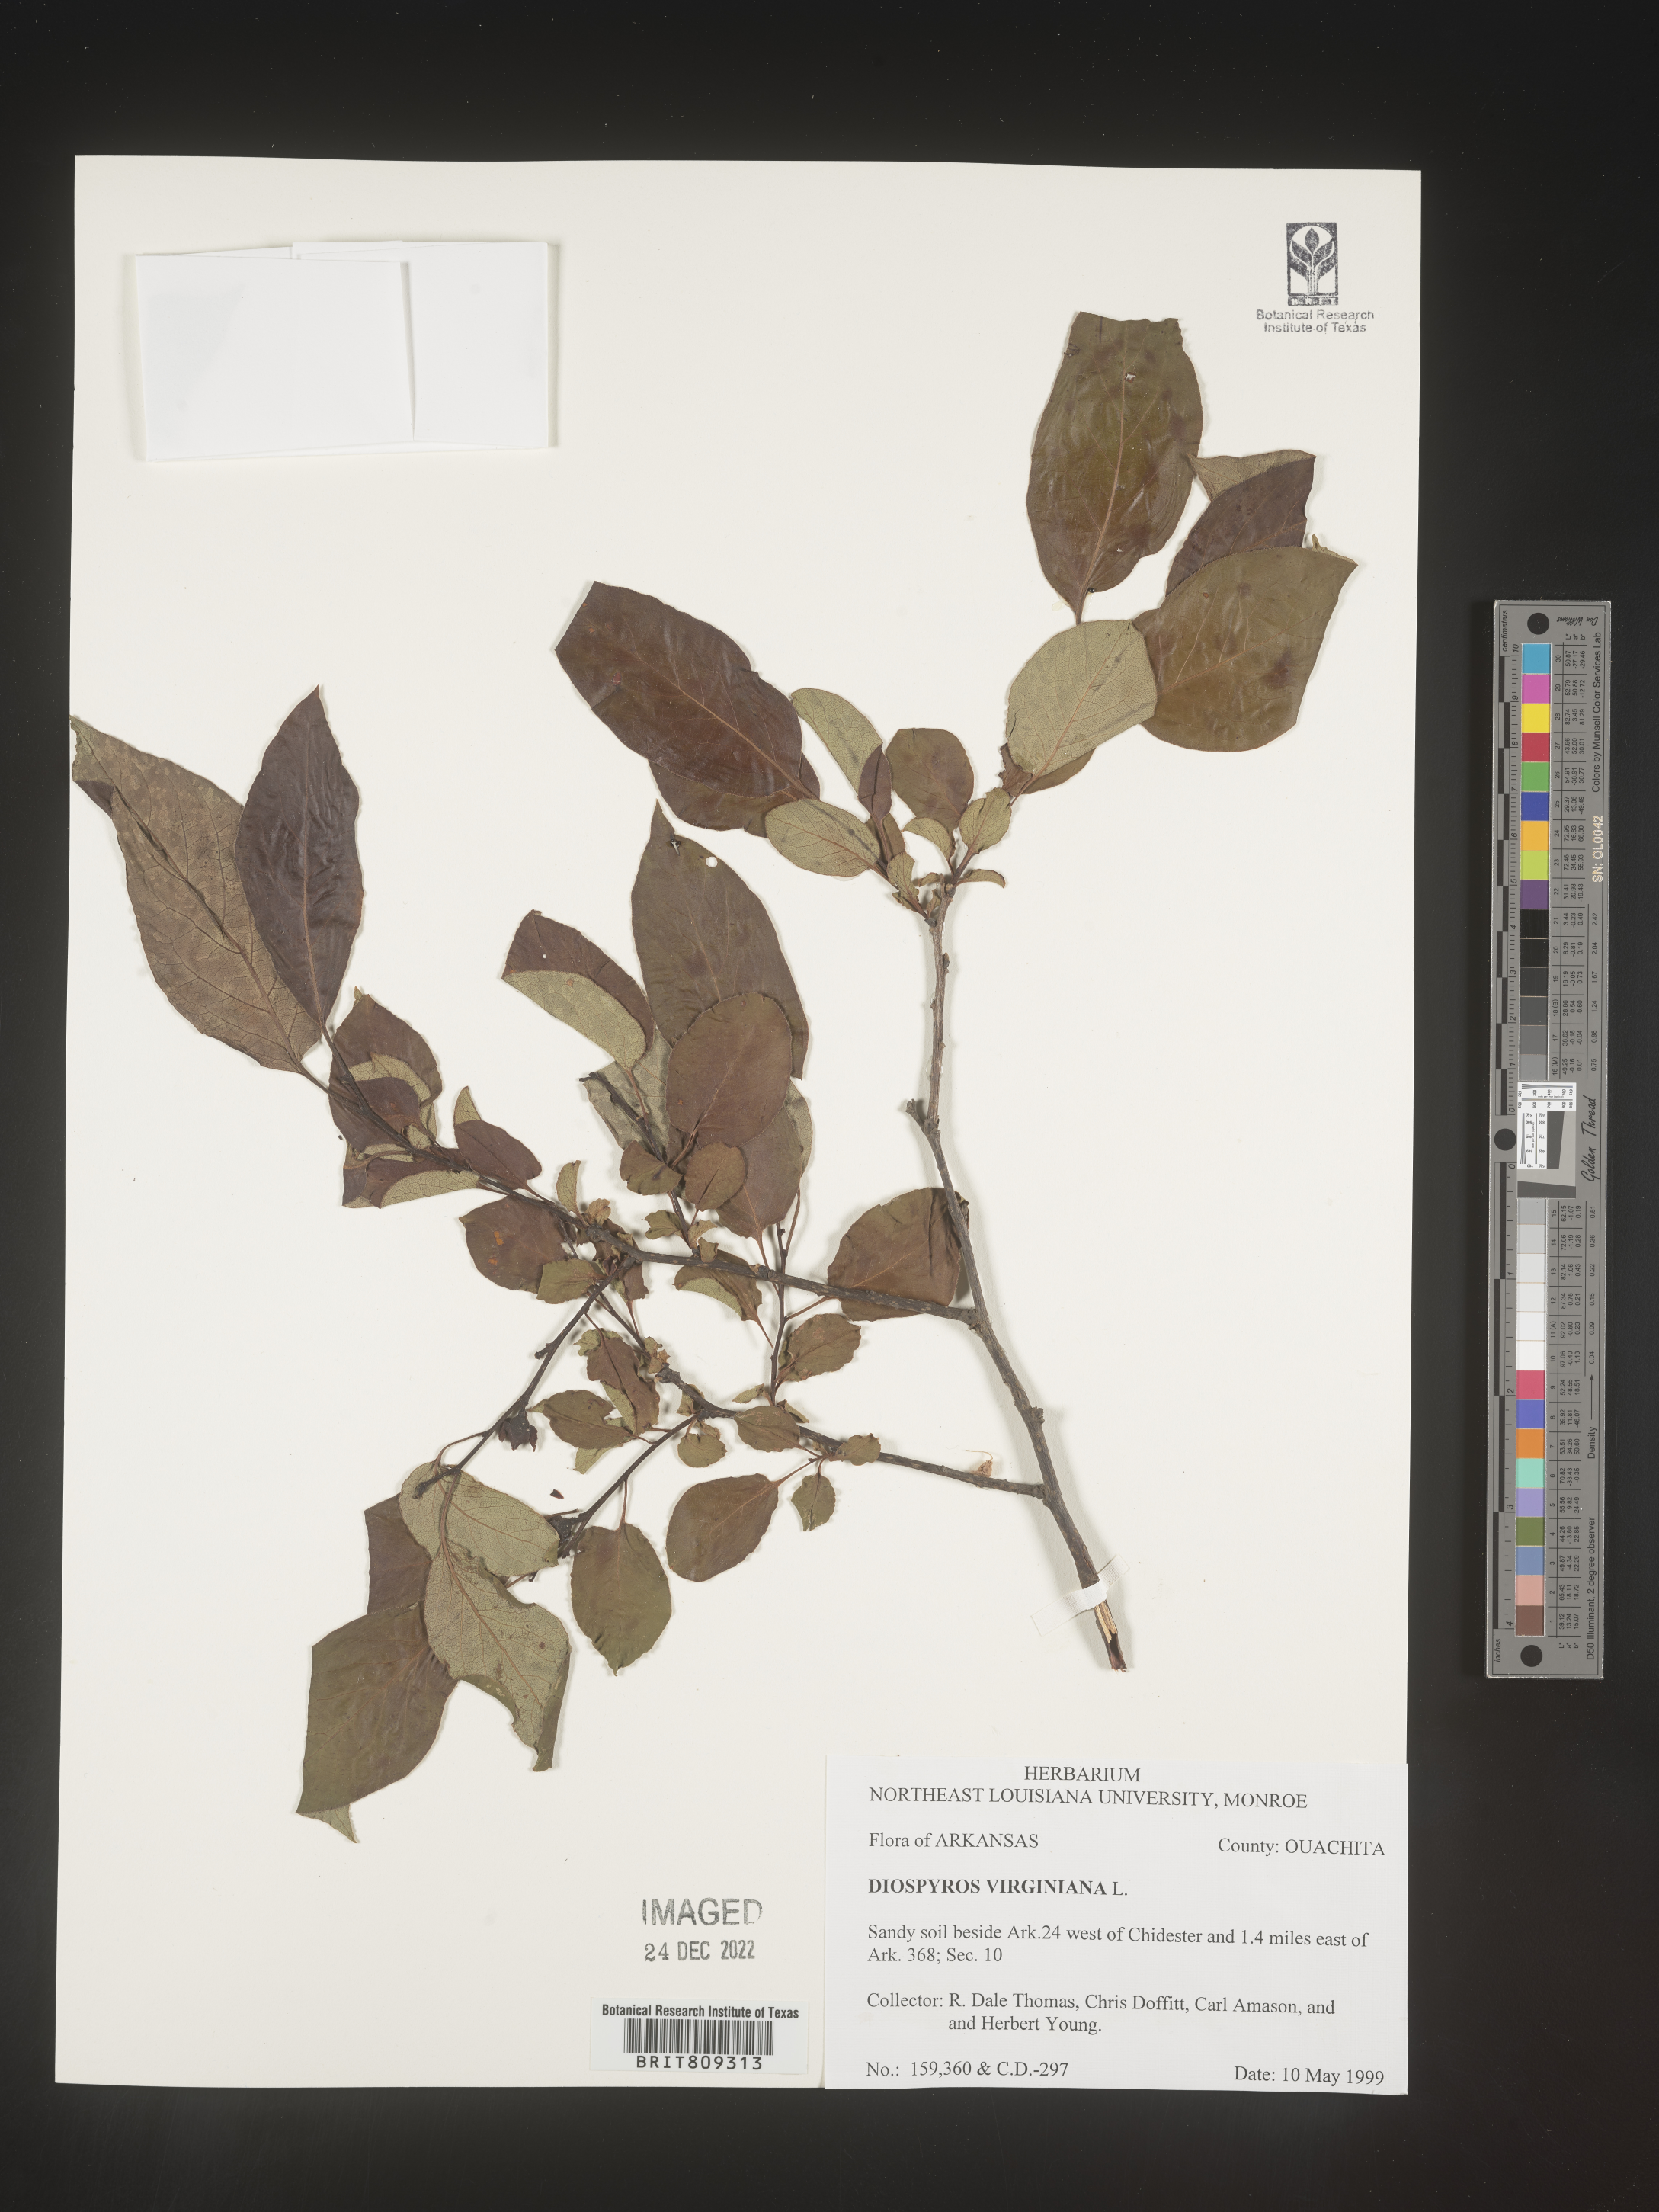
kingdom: Plantae
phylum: Tracheophyta
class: Magnoliopsida
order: Ericales
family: Ebenaceae
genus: Diospyros
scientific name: Diospyros virginiana
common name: Persimmon
